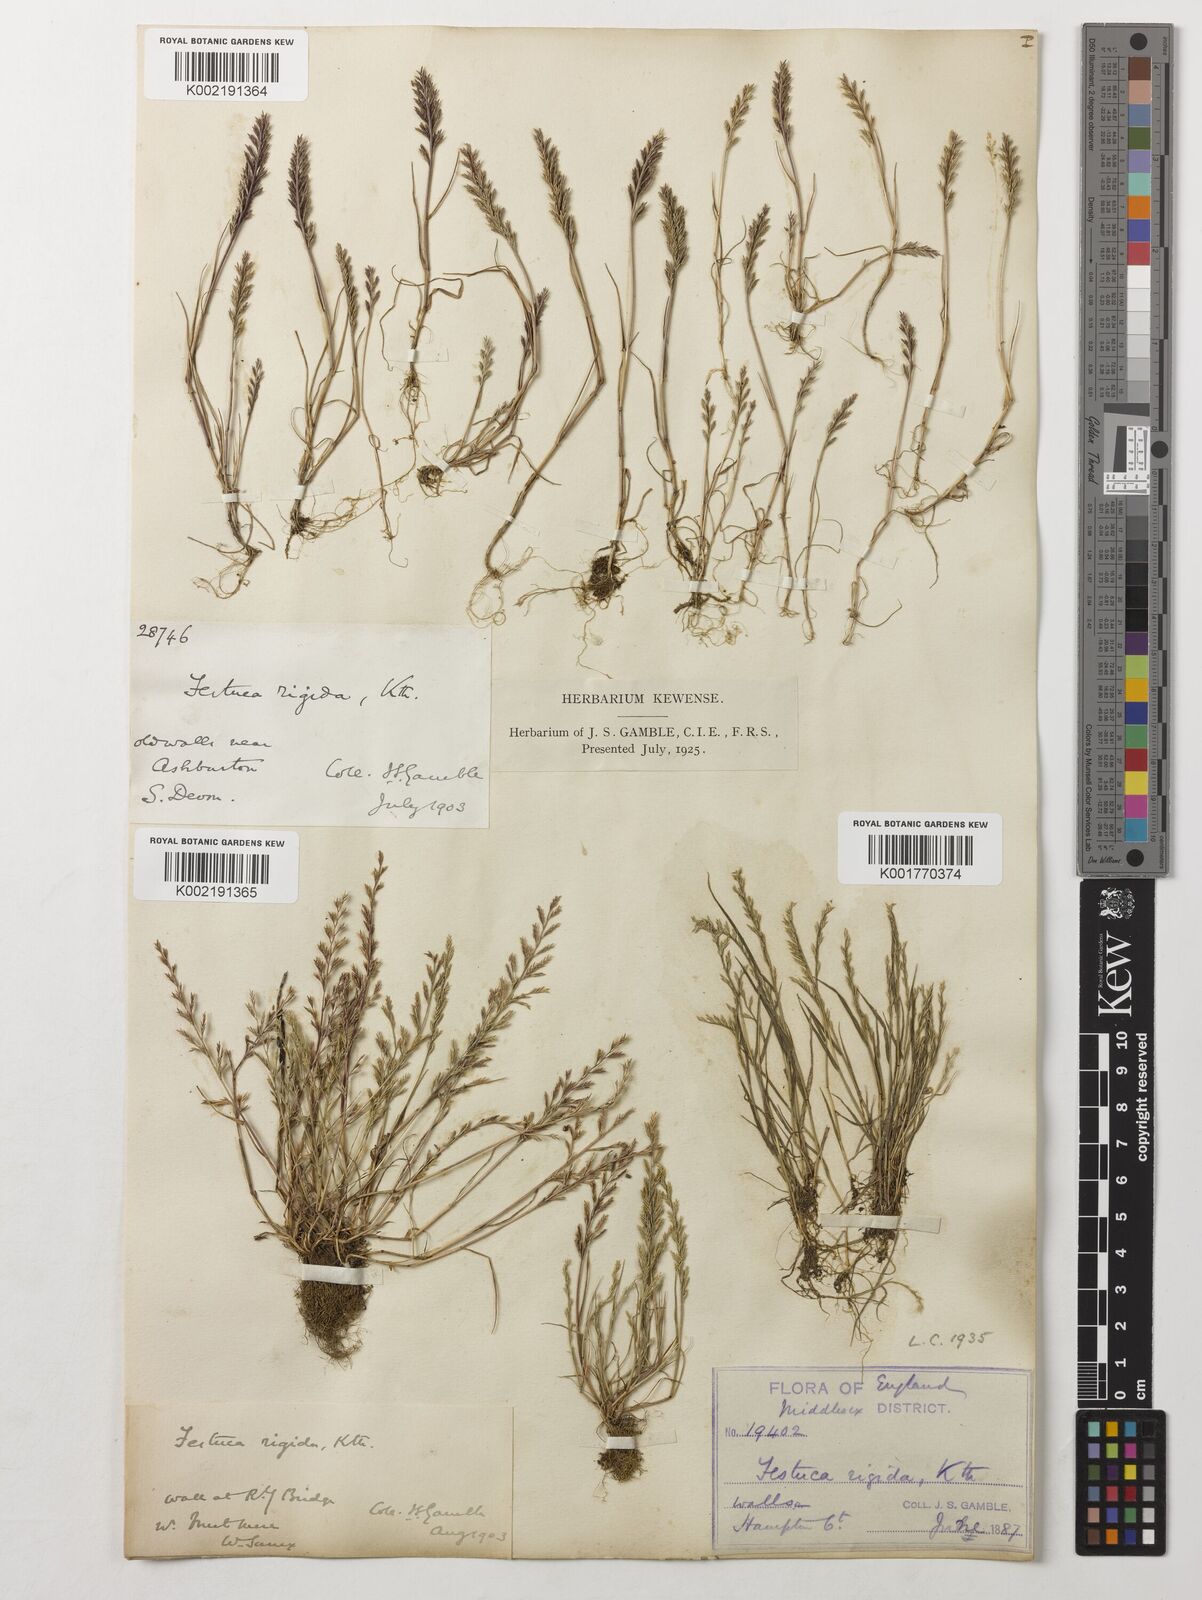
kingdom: Plantae
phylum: Tracheophyta
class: Liliopsida
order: Poales
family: Poaceae
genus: Catapodium
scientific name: Catapodium rigidum
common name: Fern-grass
